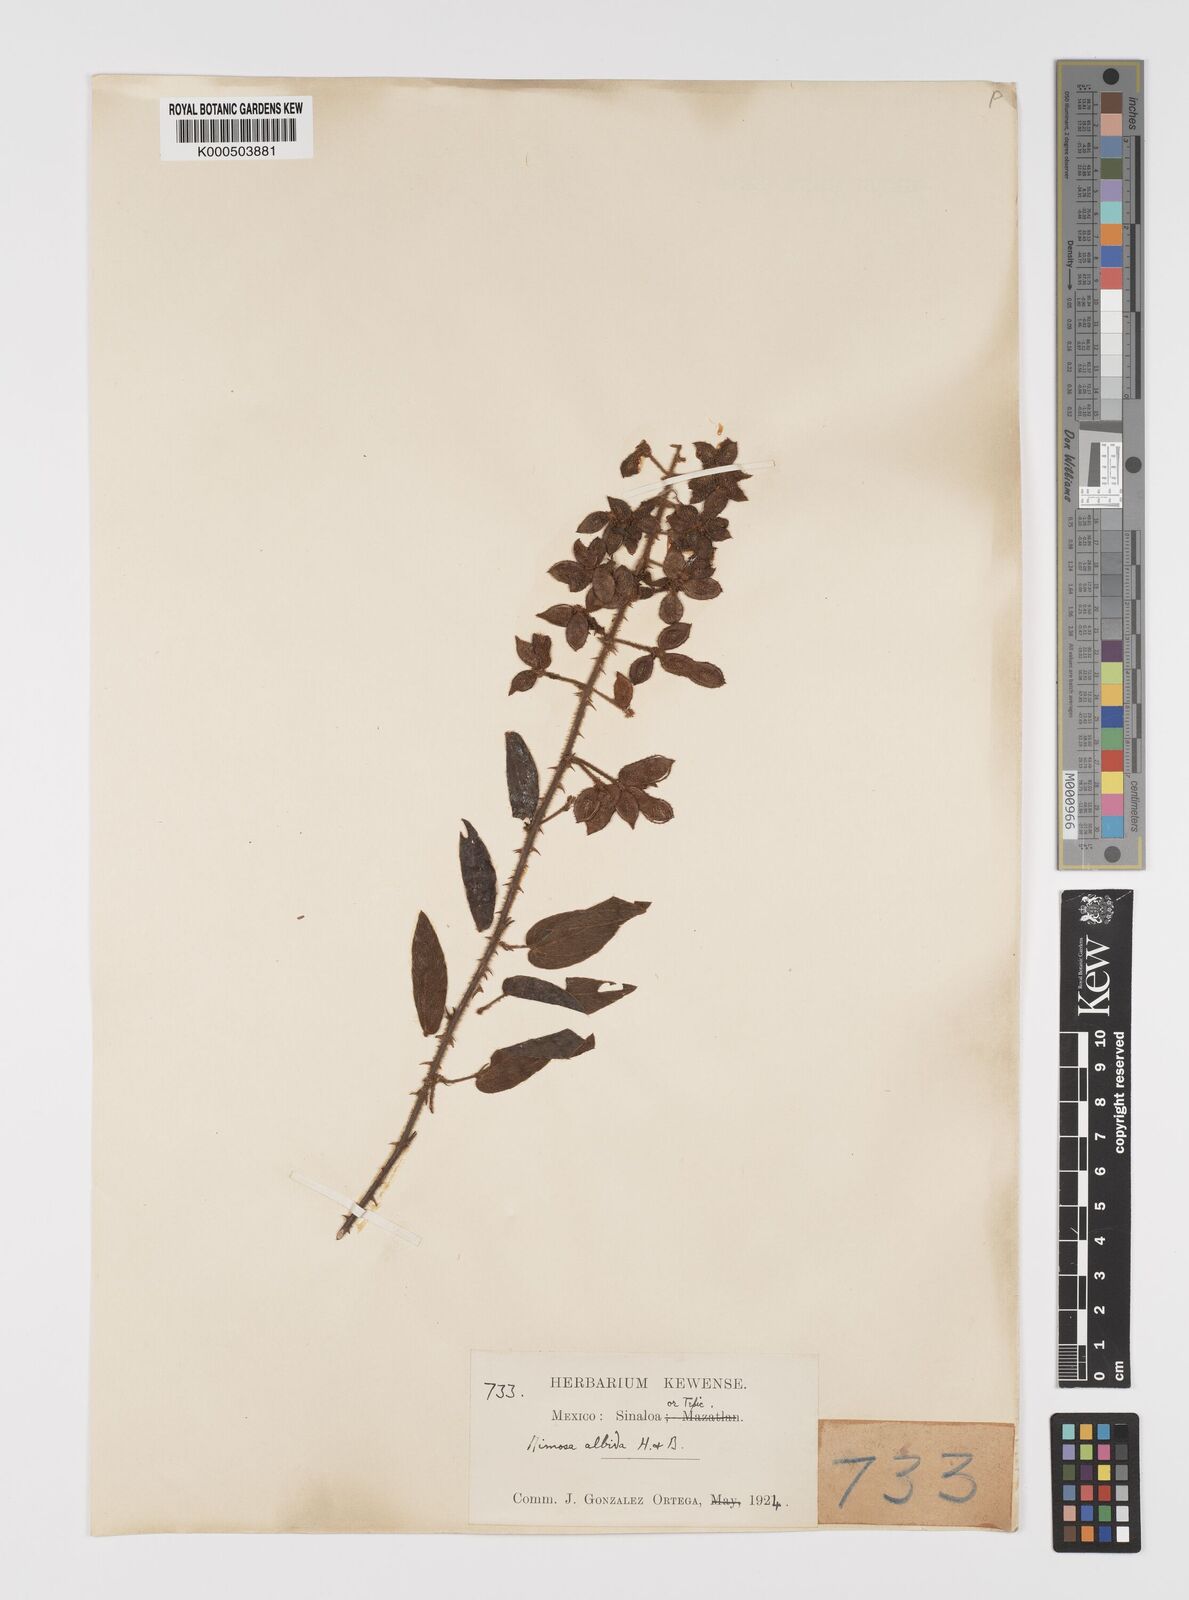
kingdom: Plantae
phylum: Tracheophyta
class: Magnoliopsida
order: Fabales
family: Fabaceae
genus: Mimosa
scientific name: Mimosa albida
